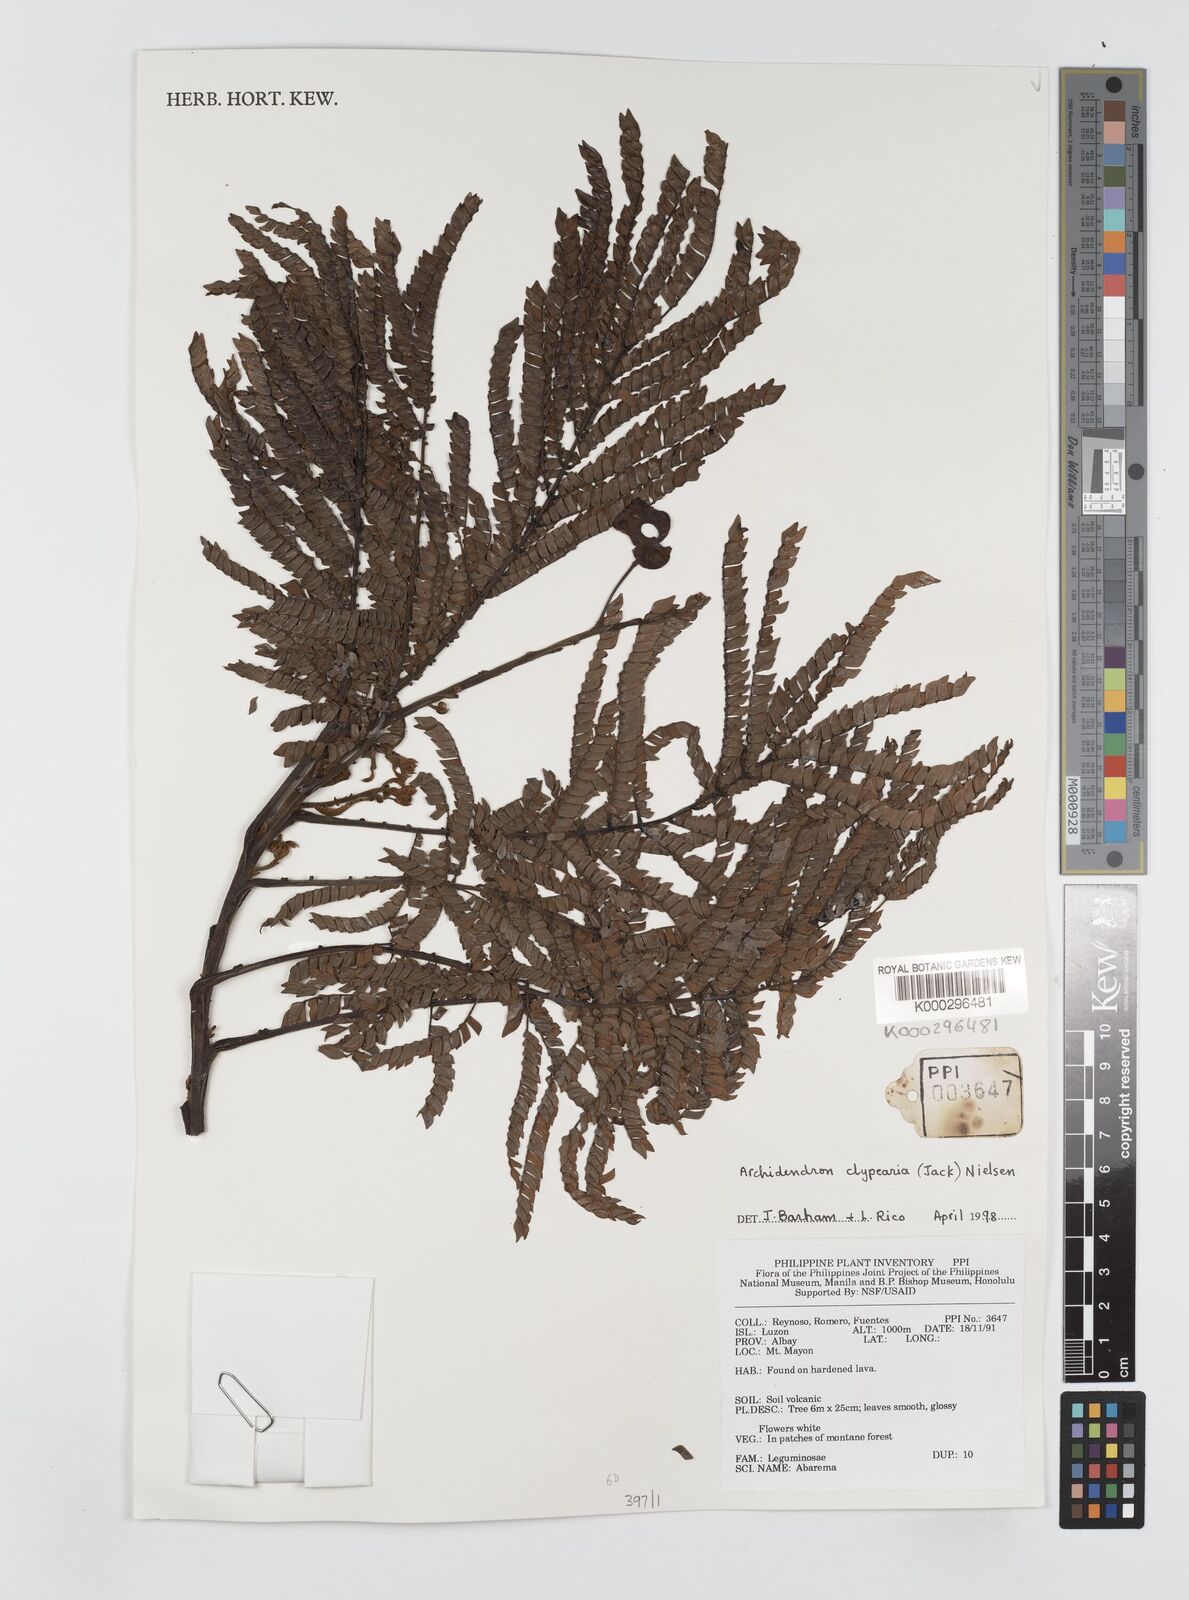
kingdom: Plantae
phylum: Tracheophyta
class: Magnoliopsida
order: Fabales
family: Fabaceae
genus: Archidendron
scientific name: Archidendron clypearia
